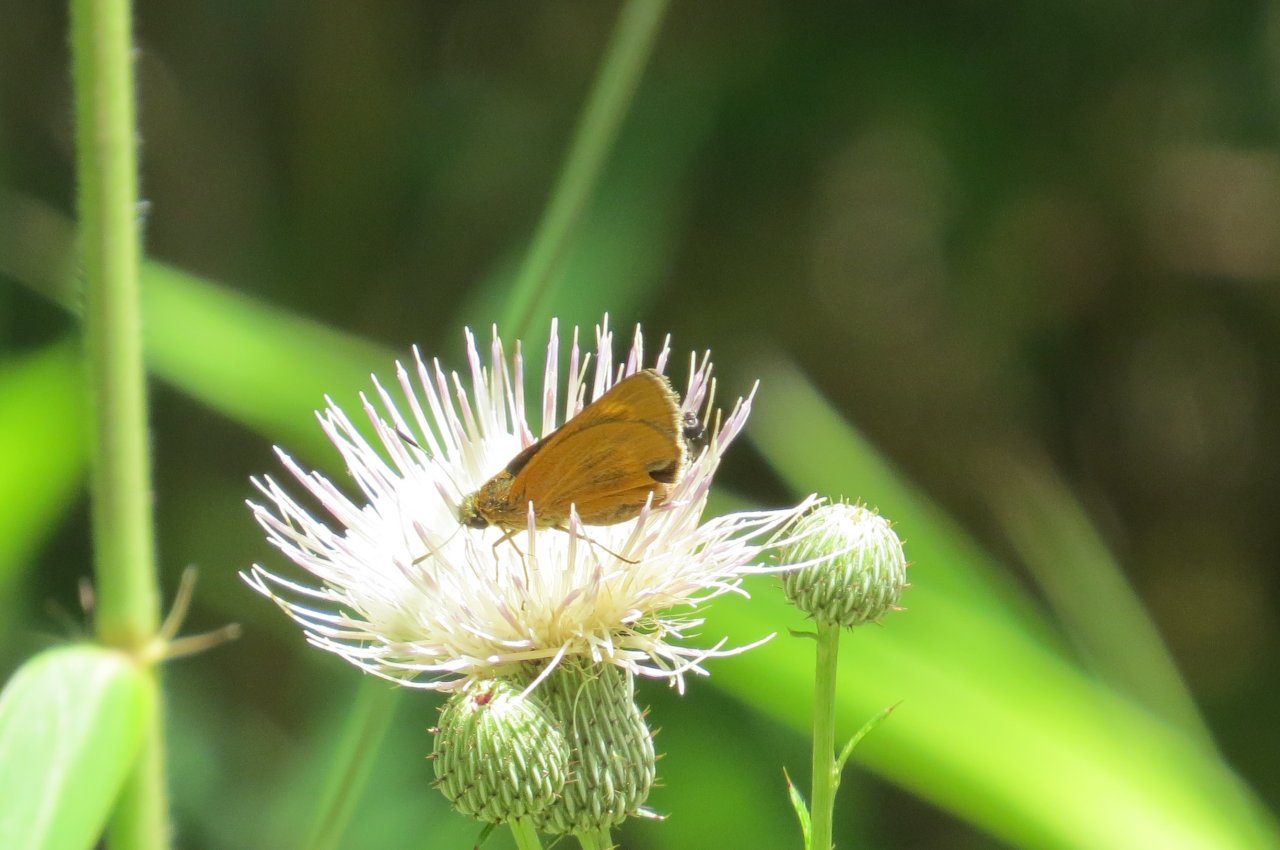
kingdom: Animalia
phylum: Arthropoda
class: Insecta
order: Lepidoptera
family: Hesperiidae
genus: Problema
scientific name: Problema byssus
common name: Byssus Skipper
